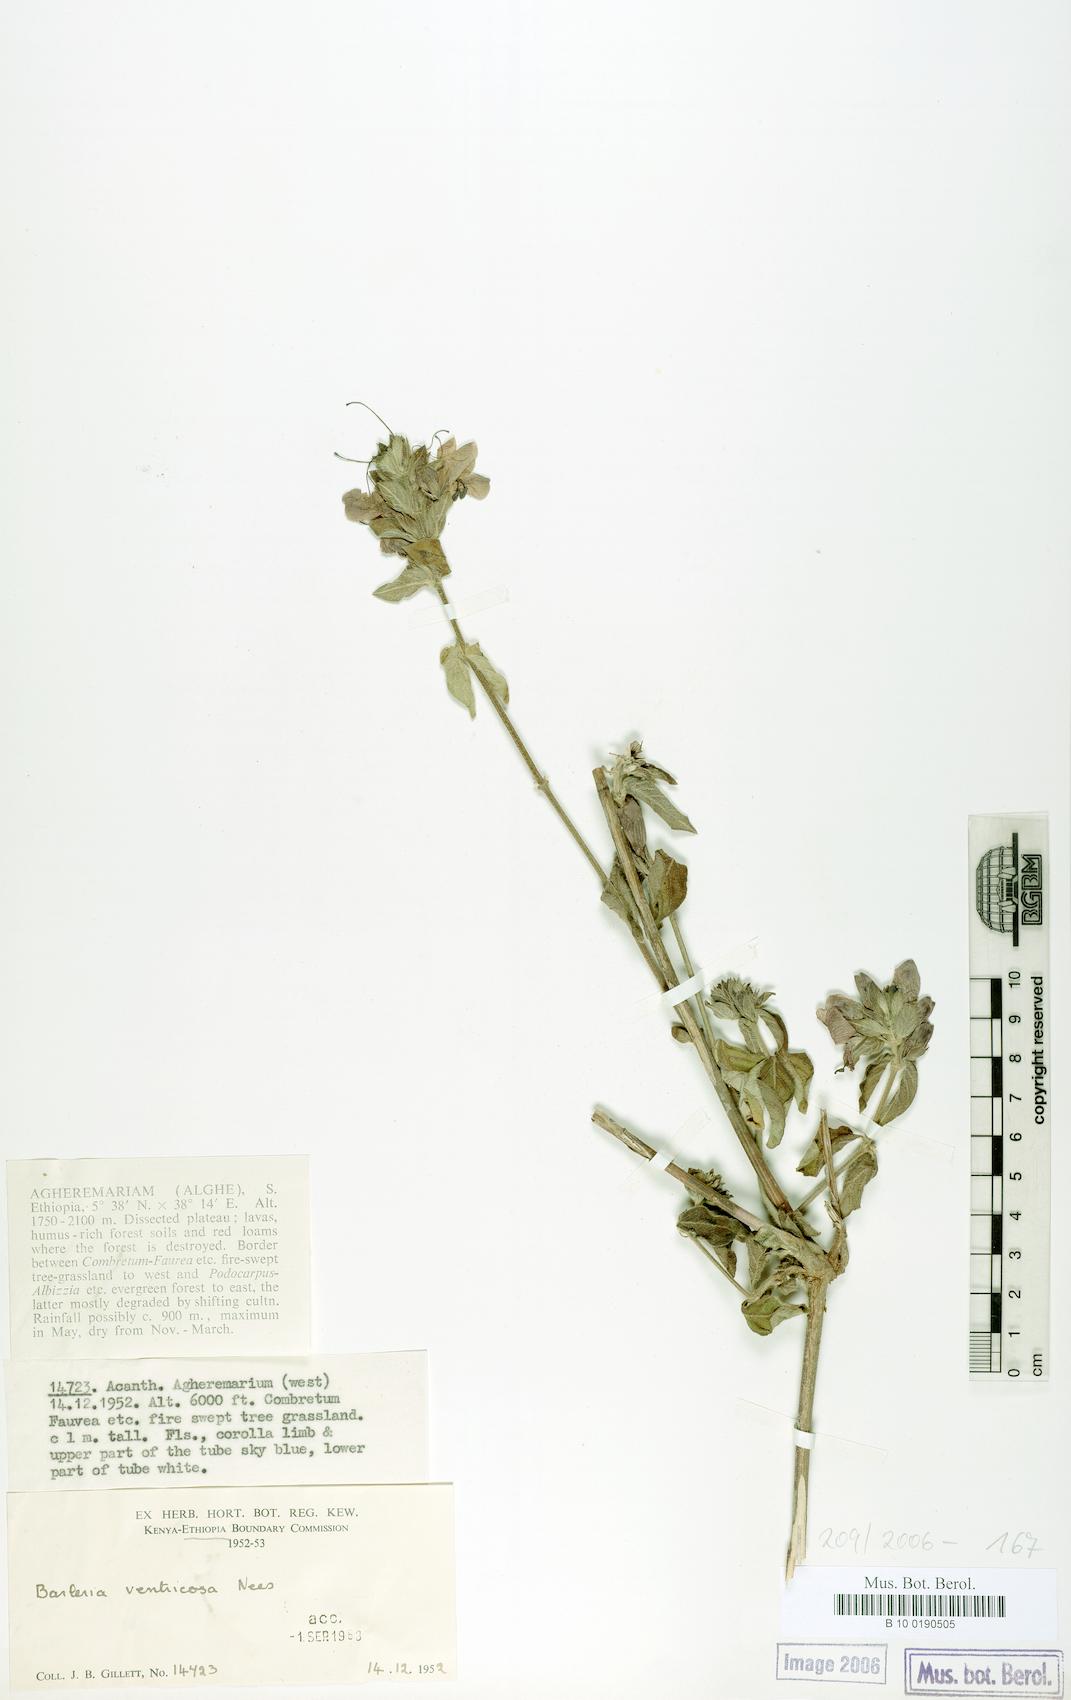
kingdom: Plantae
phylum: Tracheophyta
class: Magnoliopsida
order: Lamiales
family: Acanthaceae
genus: Barleria
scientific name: Barleria ventricosa
